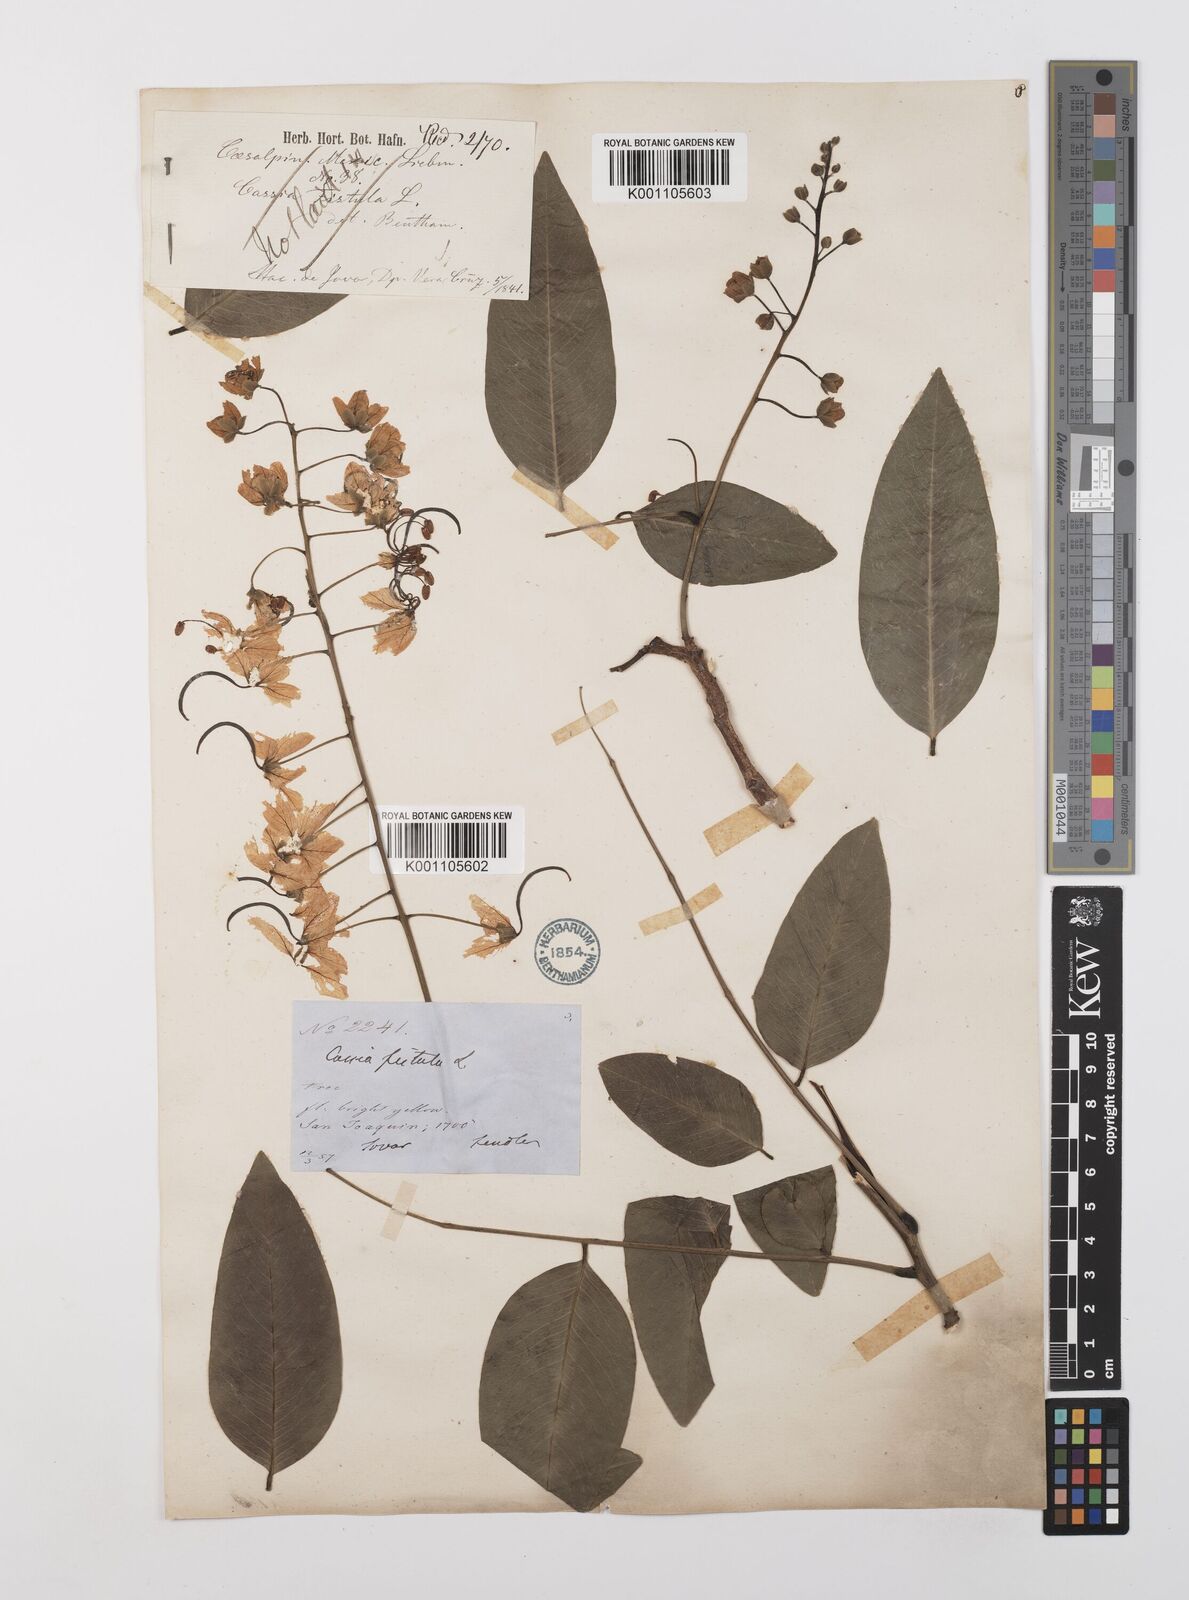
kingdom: Plantae
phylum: Tracheophyta
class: Magnoliopsida
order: Fabales
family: Fabaceae
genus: Cassia
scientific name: Cassia fistula
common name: Golden shower
